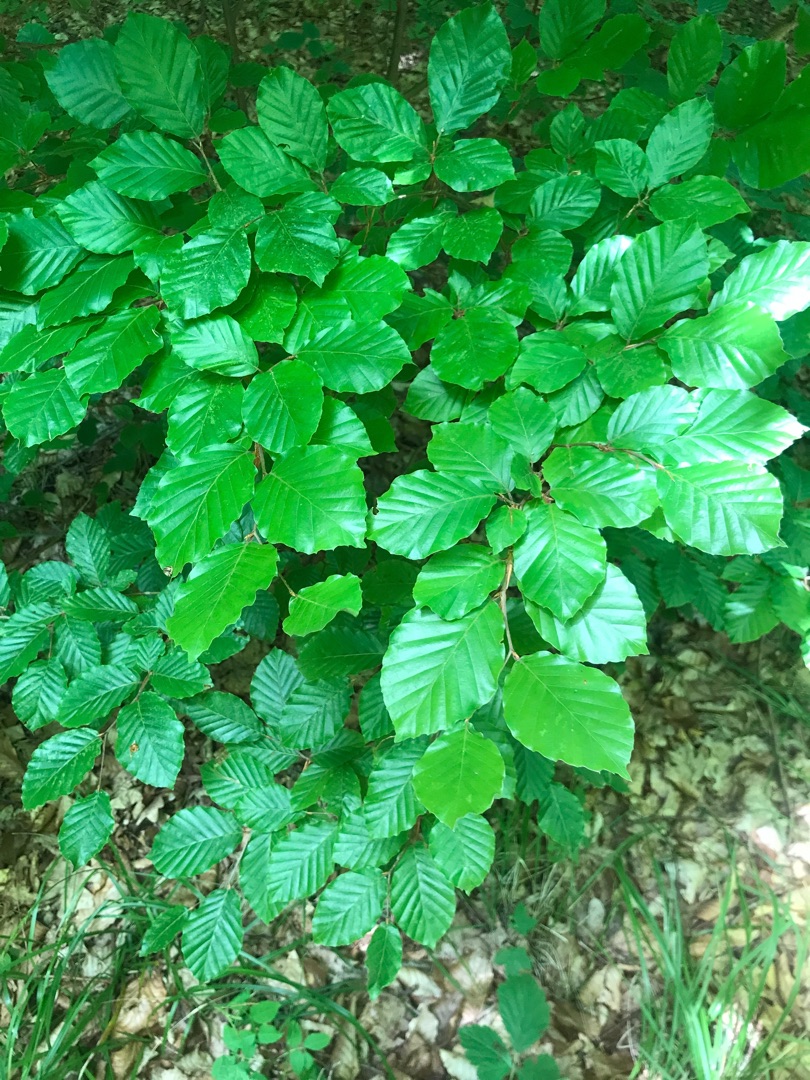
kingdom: Plantae
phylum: Tracheophyta
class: Magnoliopsida
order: Fagales
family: Fagaceae
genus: Fagus
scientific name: Fagus sylvatica
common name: Bøg
